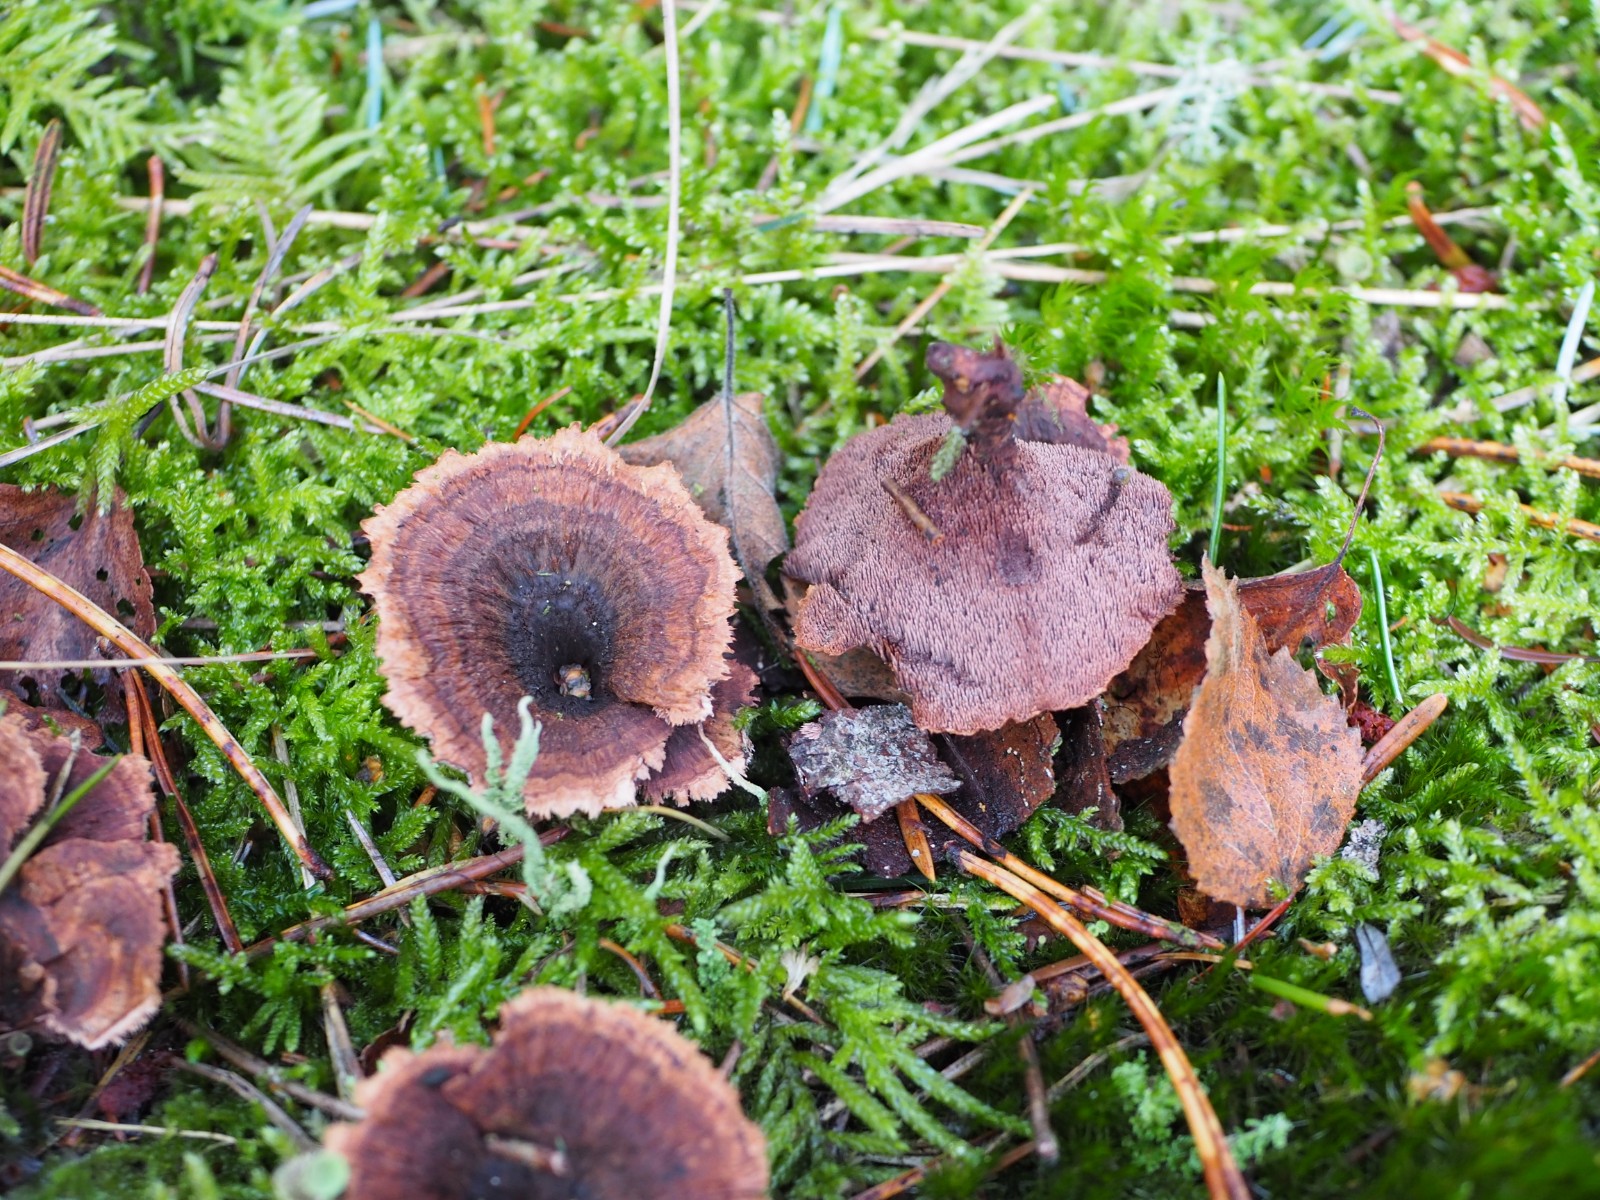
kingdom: Fungi
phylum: Basidiomycota
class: Agaricomycetes
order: Thelephorales
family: Bankeraceae
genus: Hydnellum
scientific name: Hydnellum concrescens
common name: bæltet korkpigsvamp
